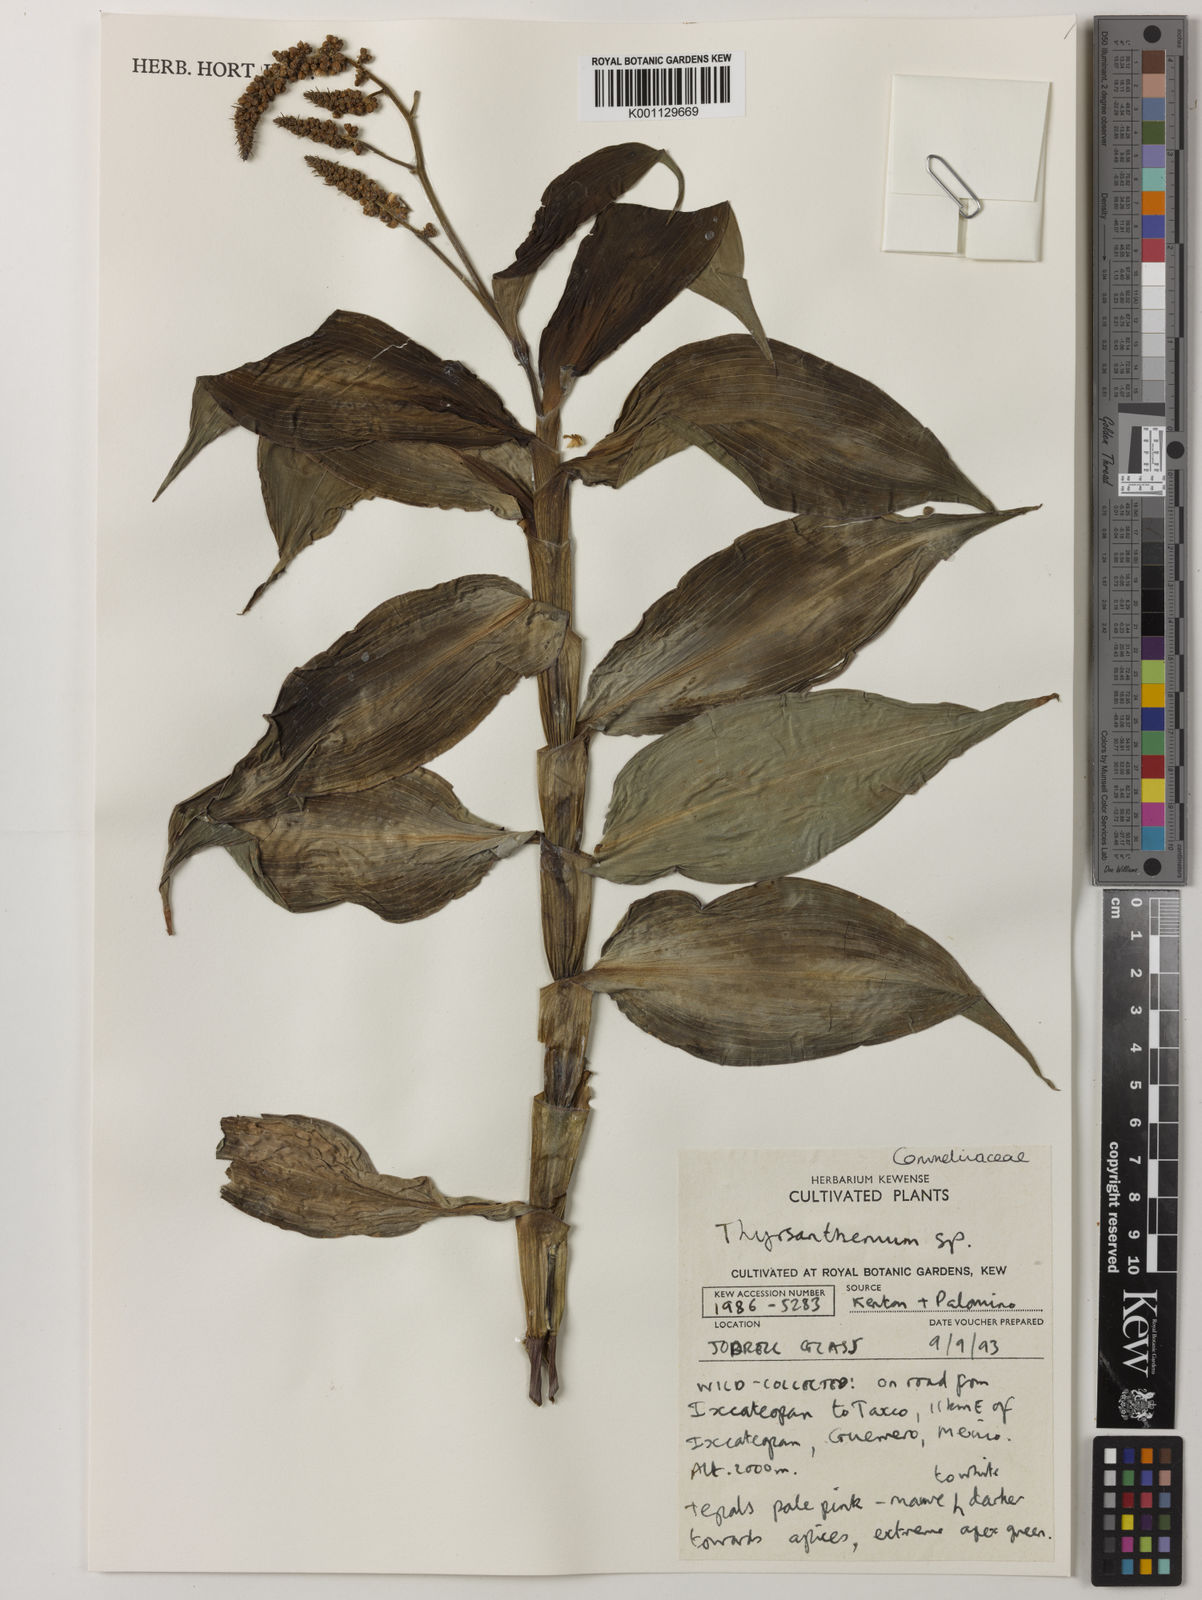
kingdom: Plantae
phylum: Tracheophyta
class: Liliopsida
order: Commelinales
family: Commelinaceae
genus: Thyrsanthemum
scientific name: Thyrsanthemum
